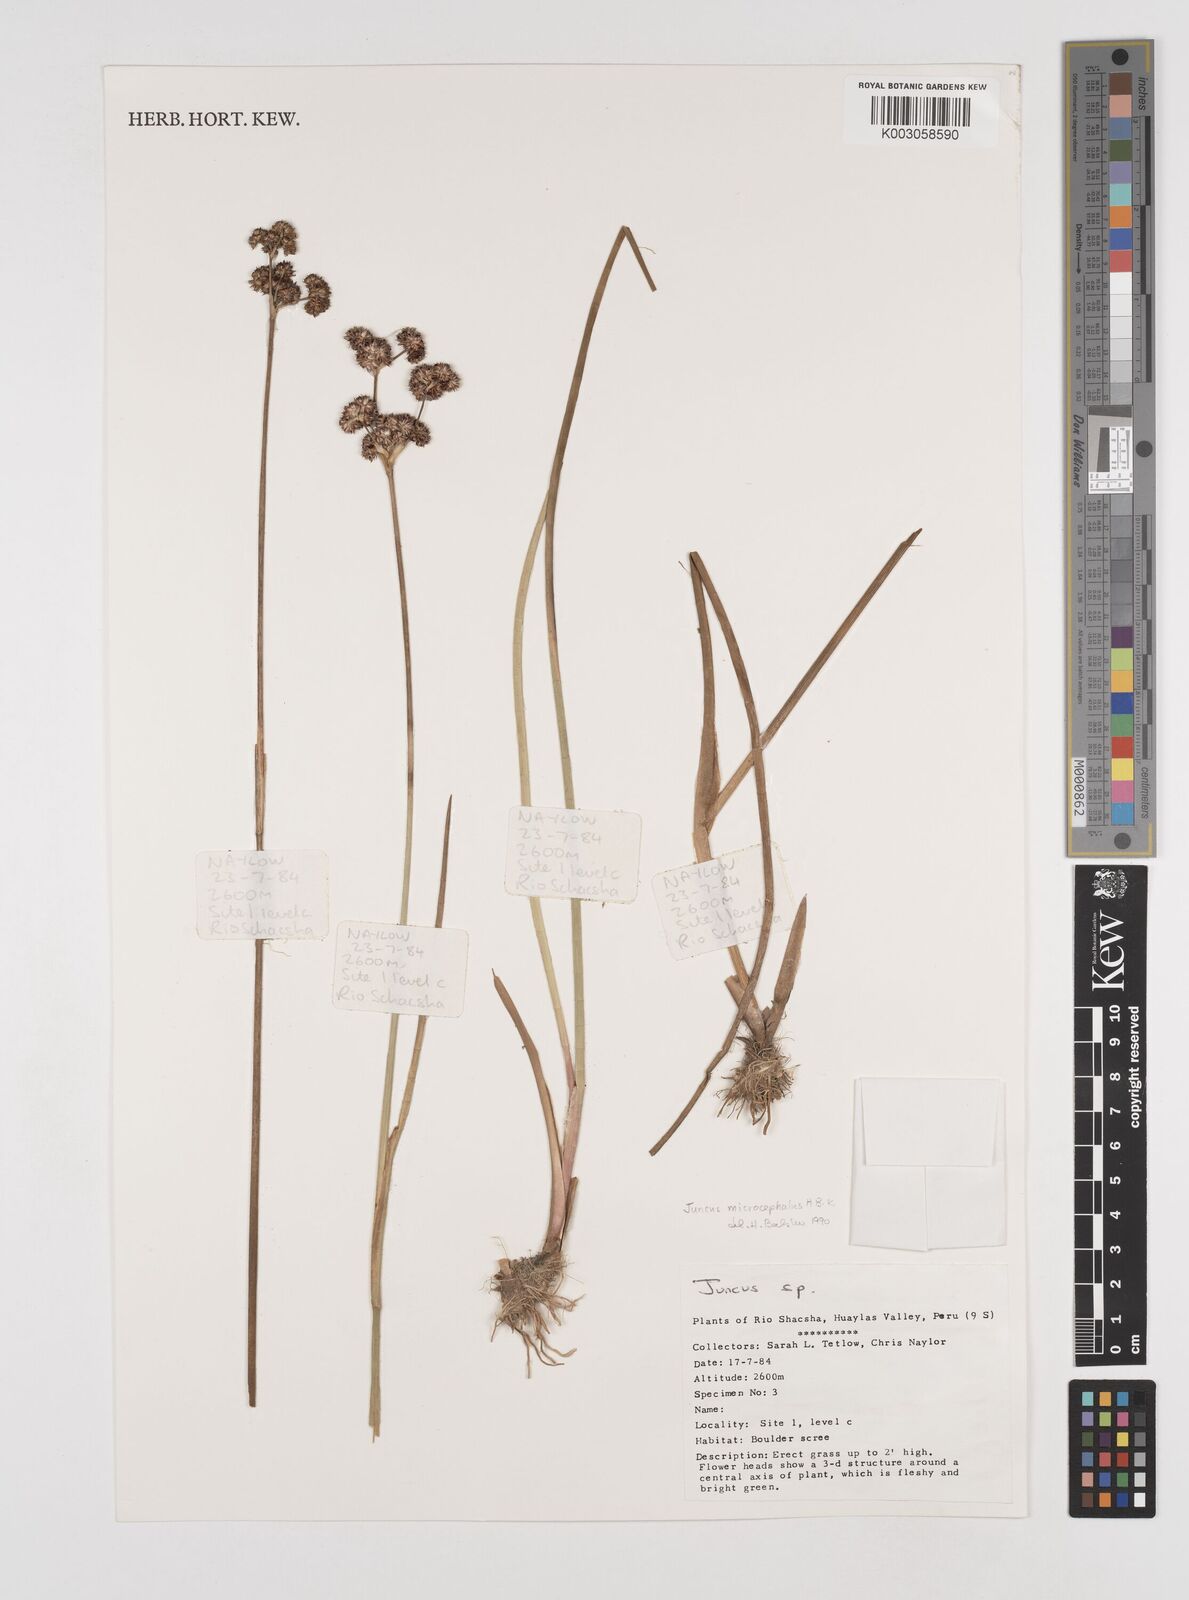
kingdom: Plantae
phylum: Tracheophyta
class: Liliopsida
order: Poales
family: Juncaceae
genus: Juncus
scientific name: Juncus
